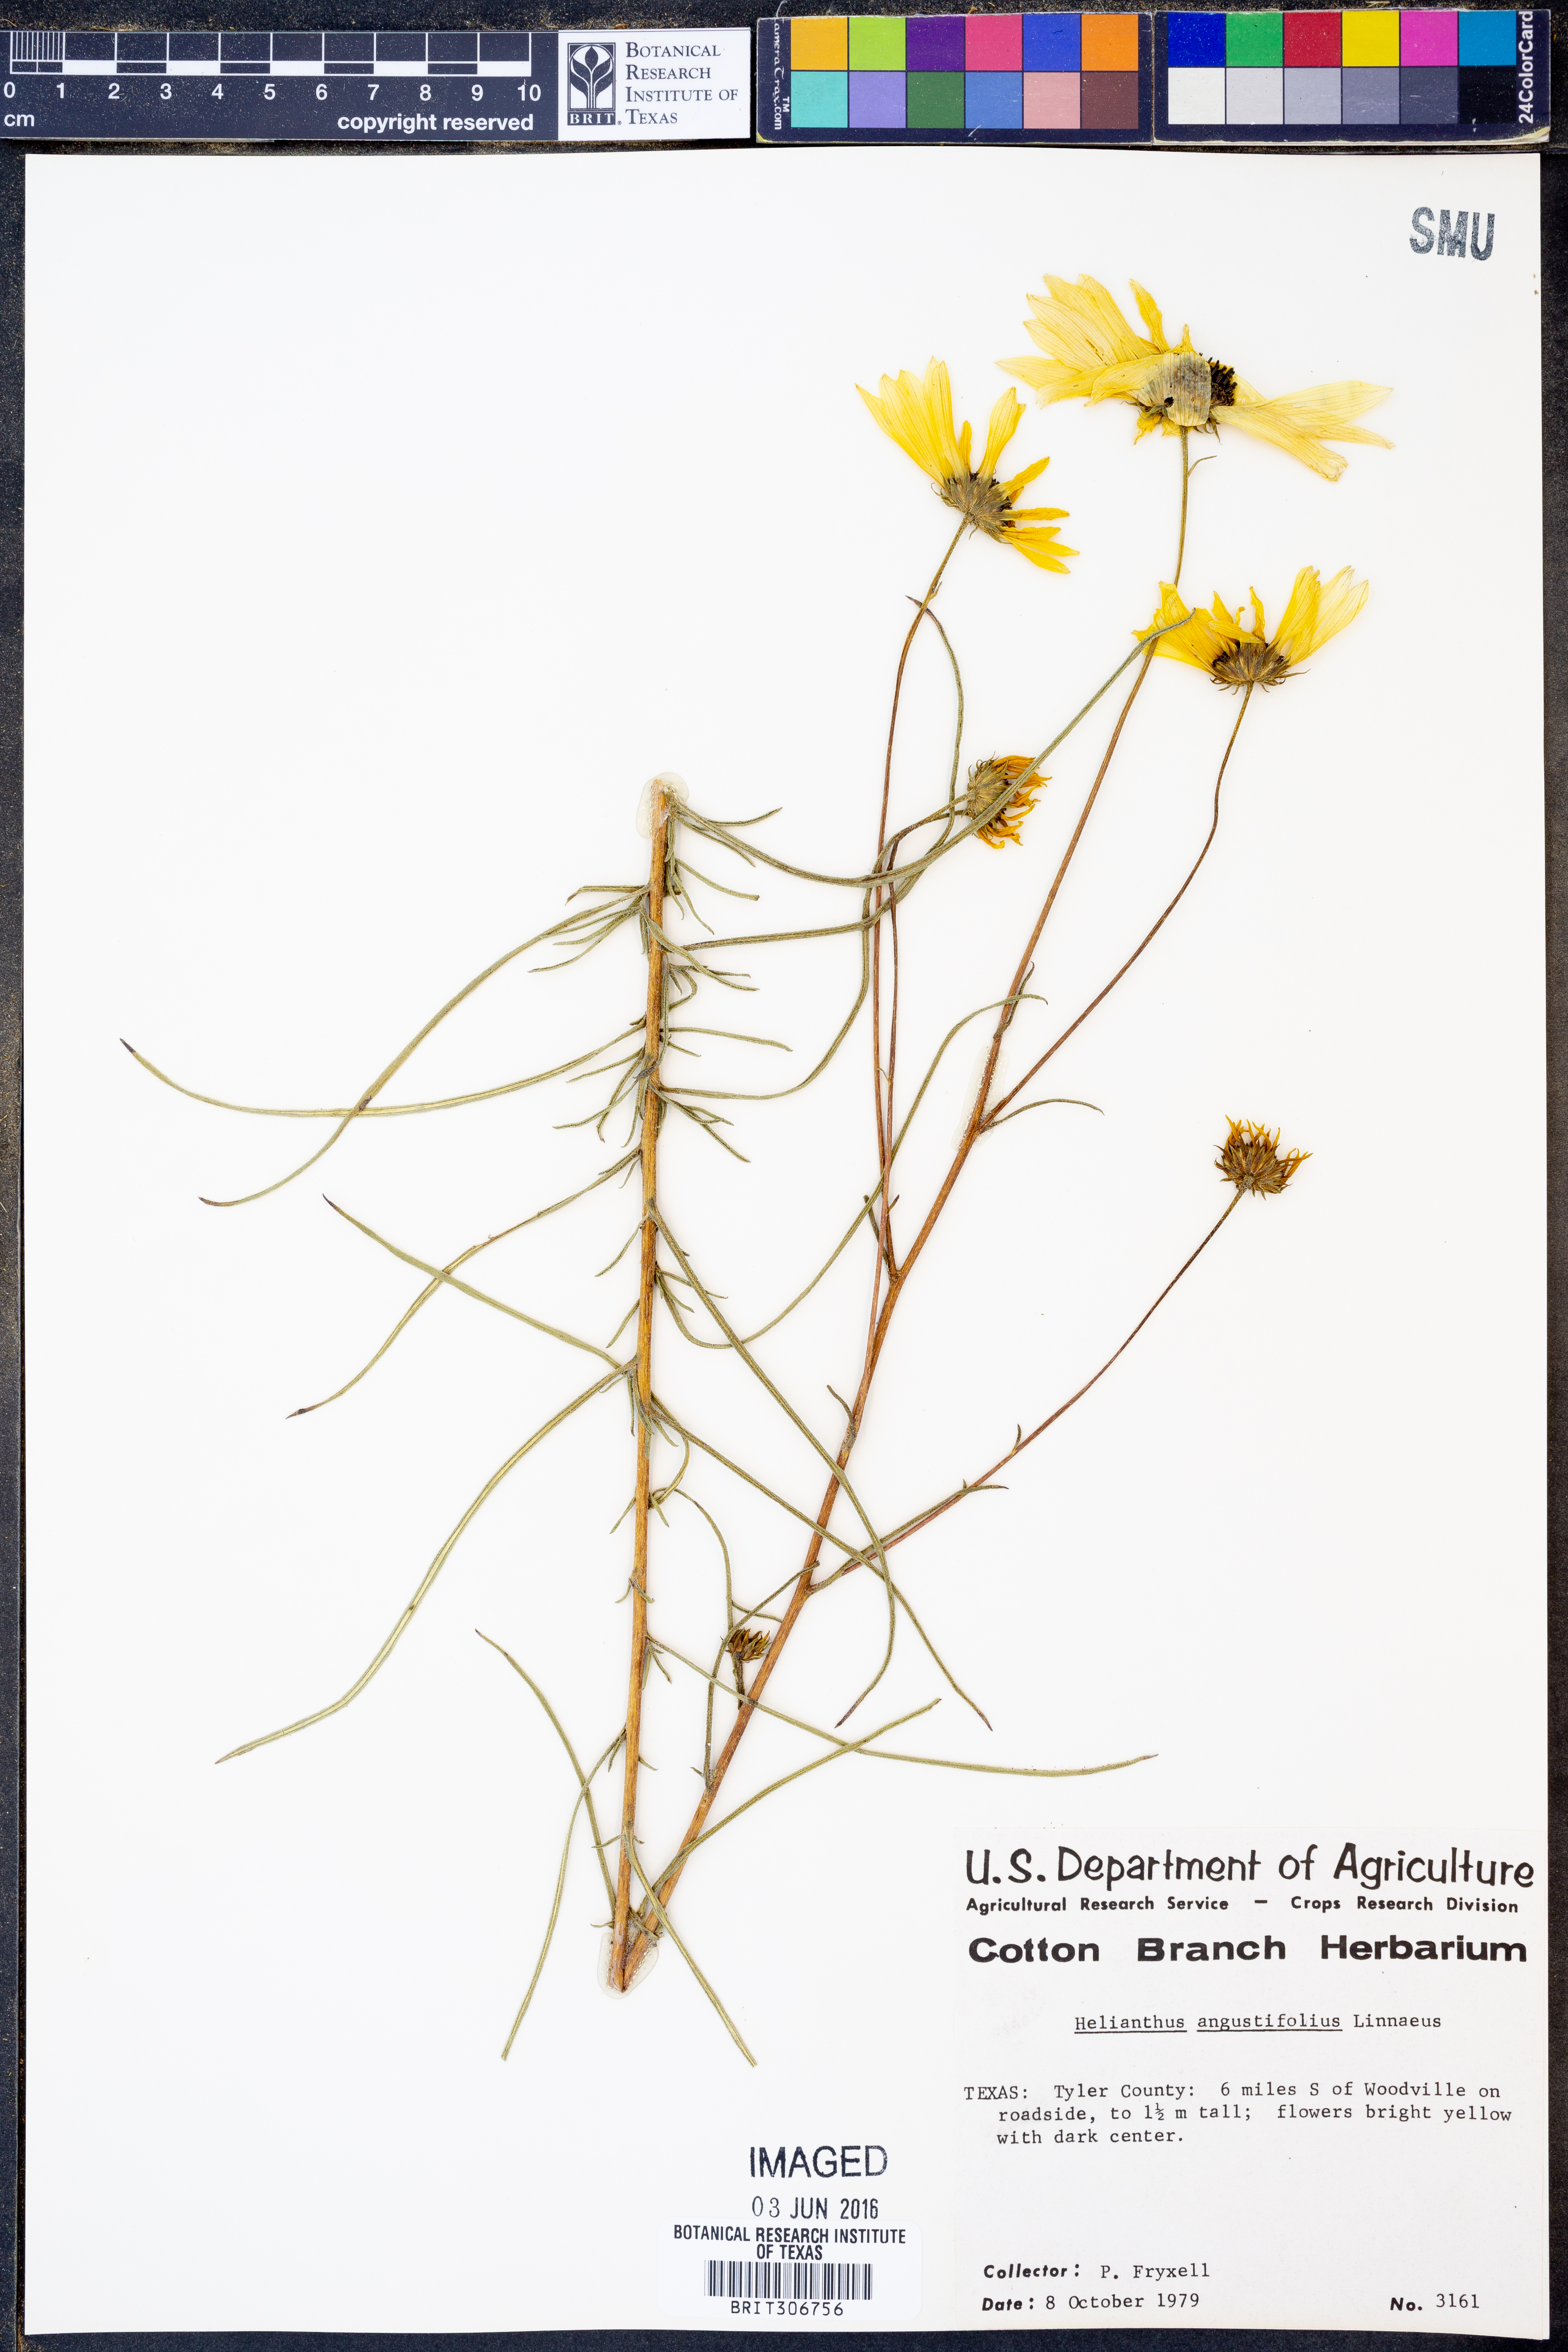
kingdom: Plantae
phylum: Tracheophyta
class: Magnoliopsida
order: Asterales
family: Asteraceae
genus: Helianthus
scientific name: Helianthus angustifolius
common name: Swamp sunflower
